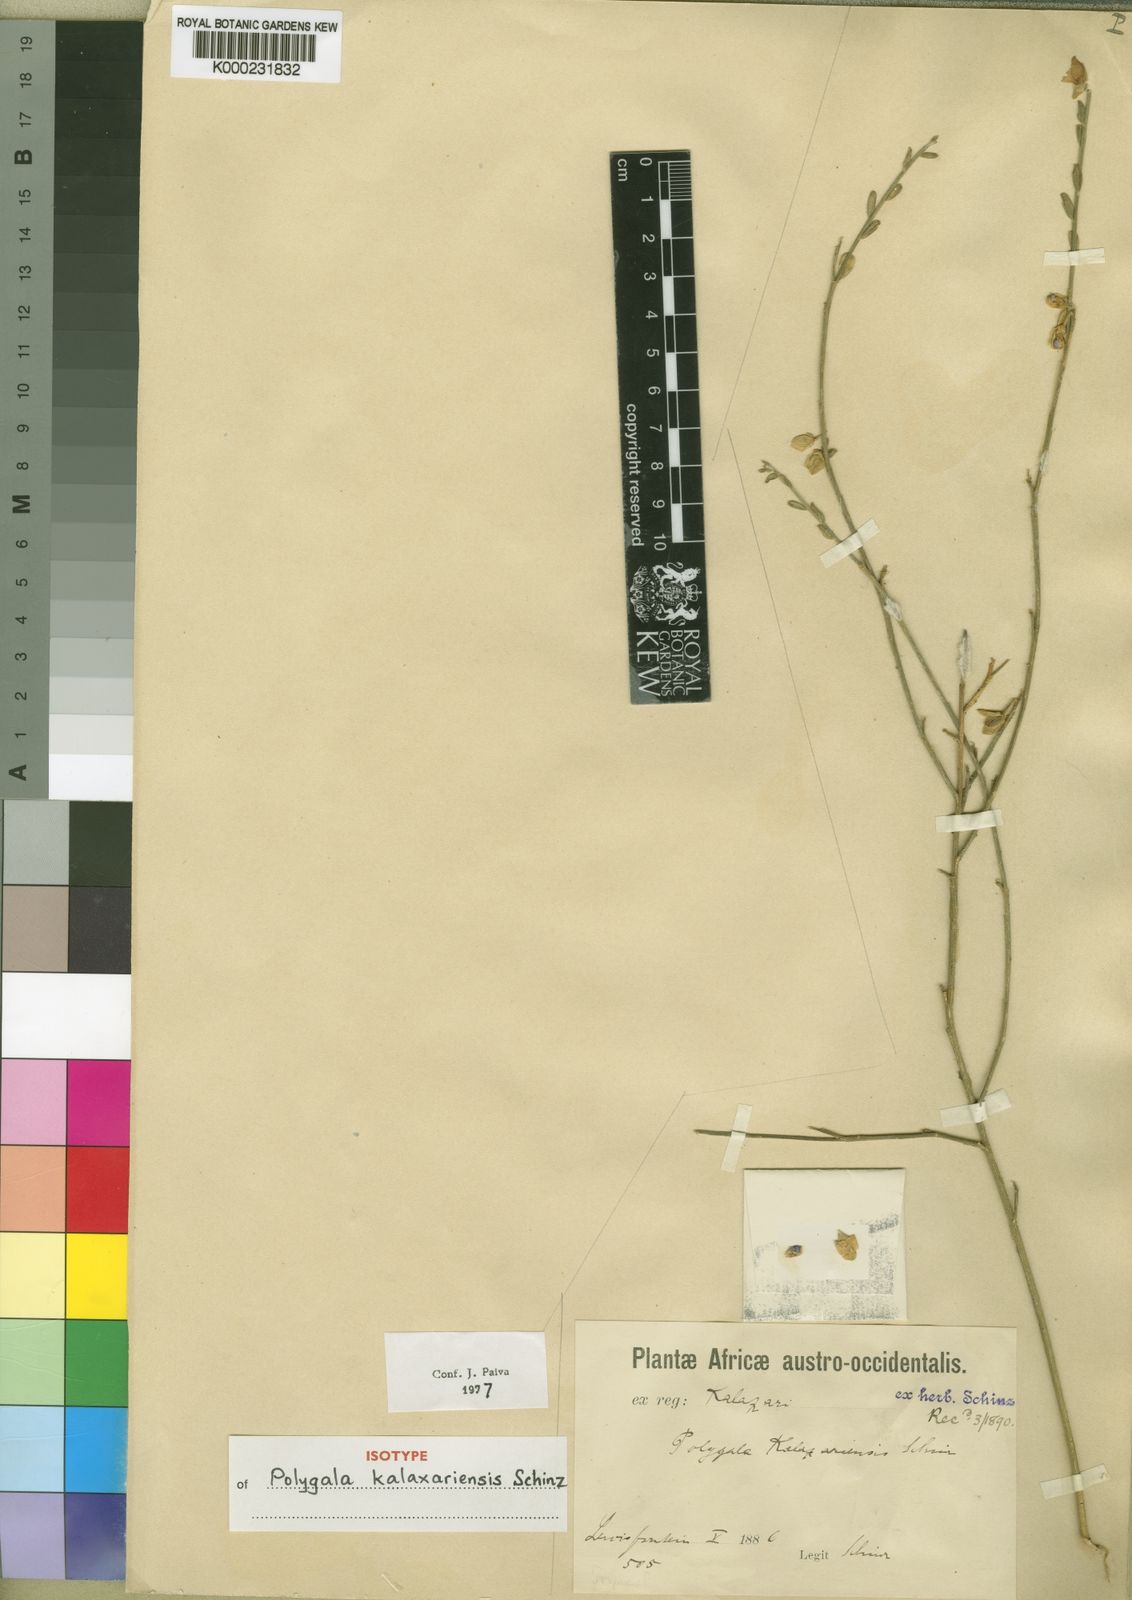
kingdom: Plantae
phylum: Tracheophyta
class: Magnoliopsida
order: Fabales
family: Polygalaceae
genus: Polygala
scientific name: Polygala kalaxariensis
